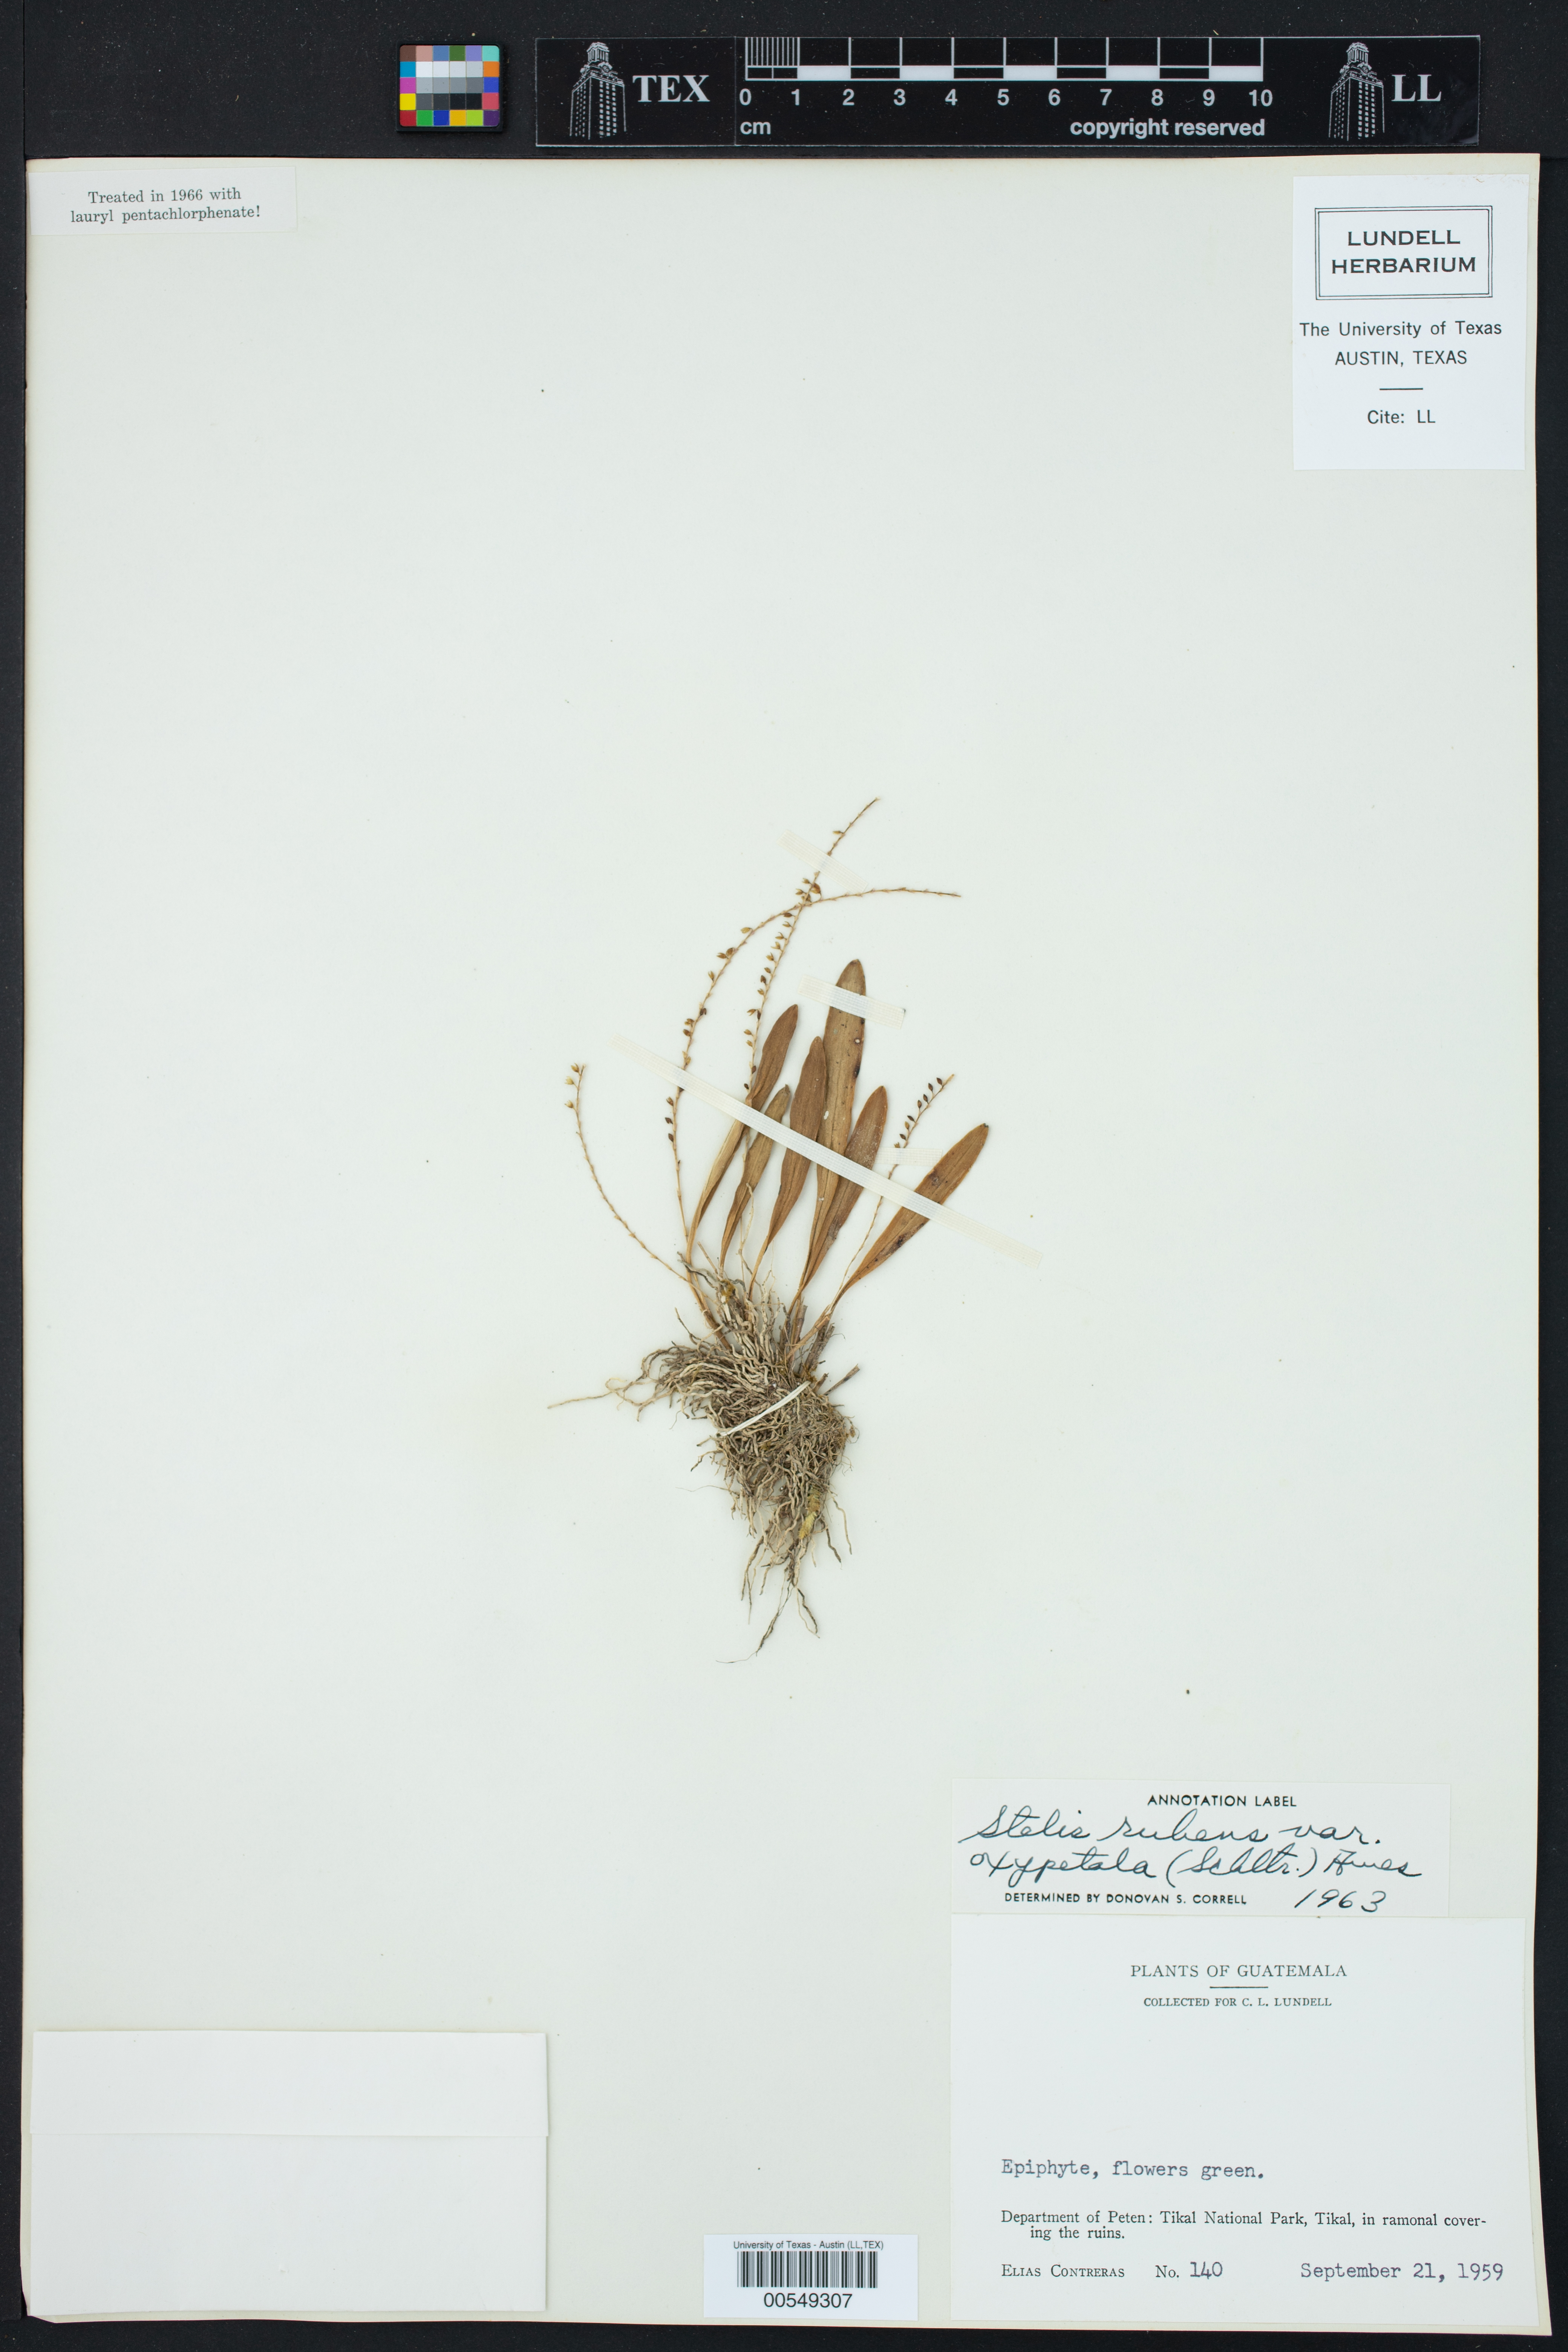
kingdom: Plantae
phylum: Tracheophyta
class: Liliopsida
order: Asparagales
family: Orchidaceae
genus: Stelis
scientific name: Stelis oxypetala
